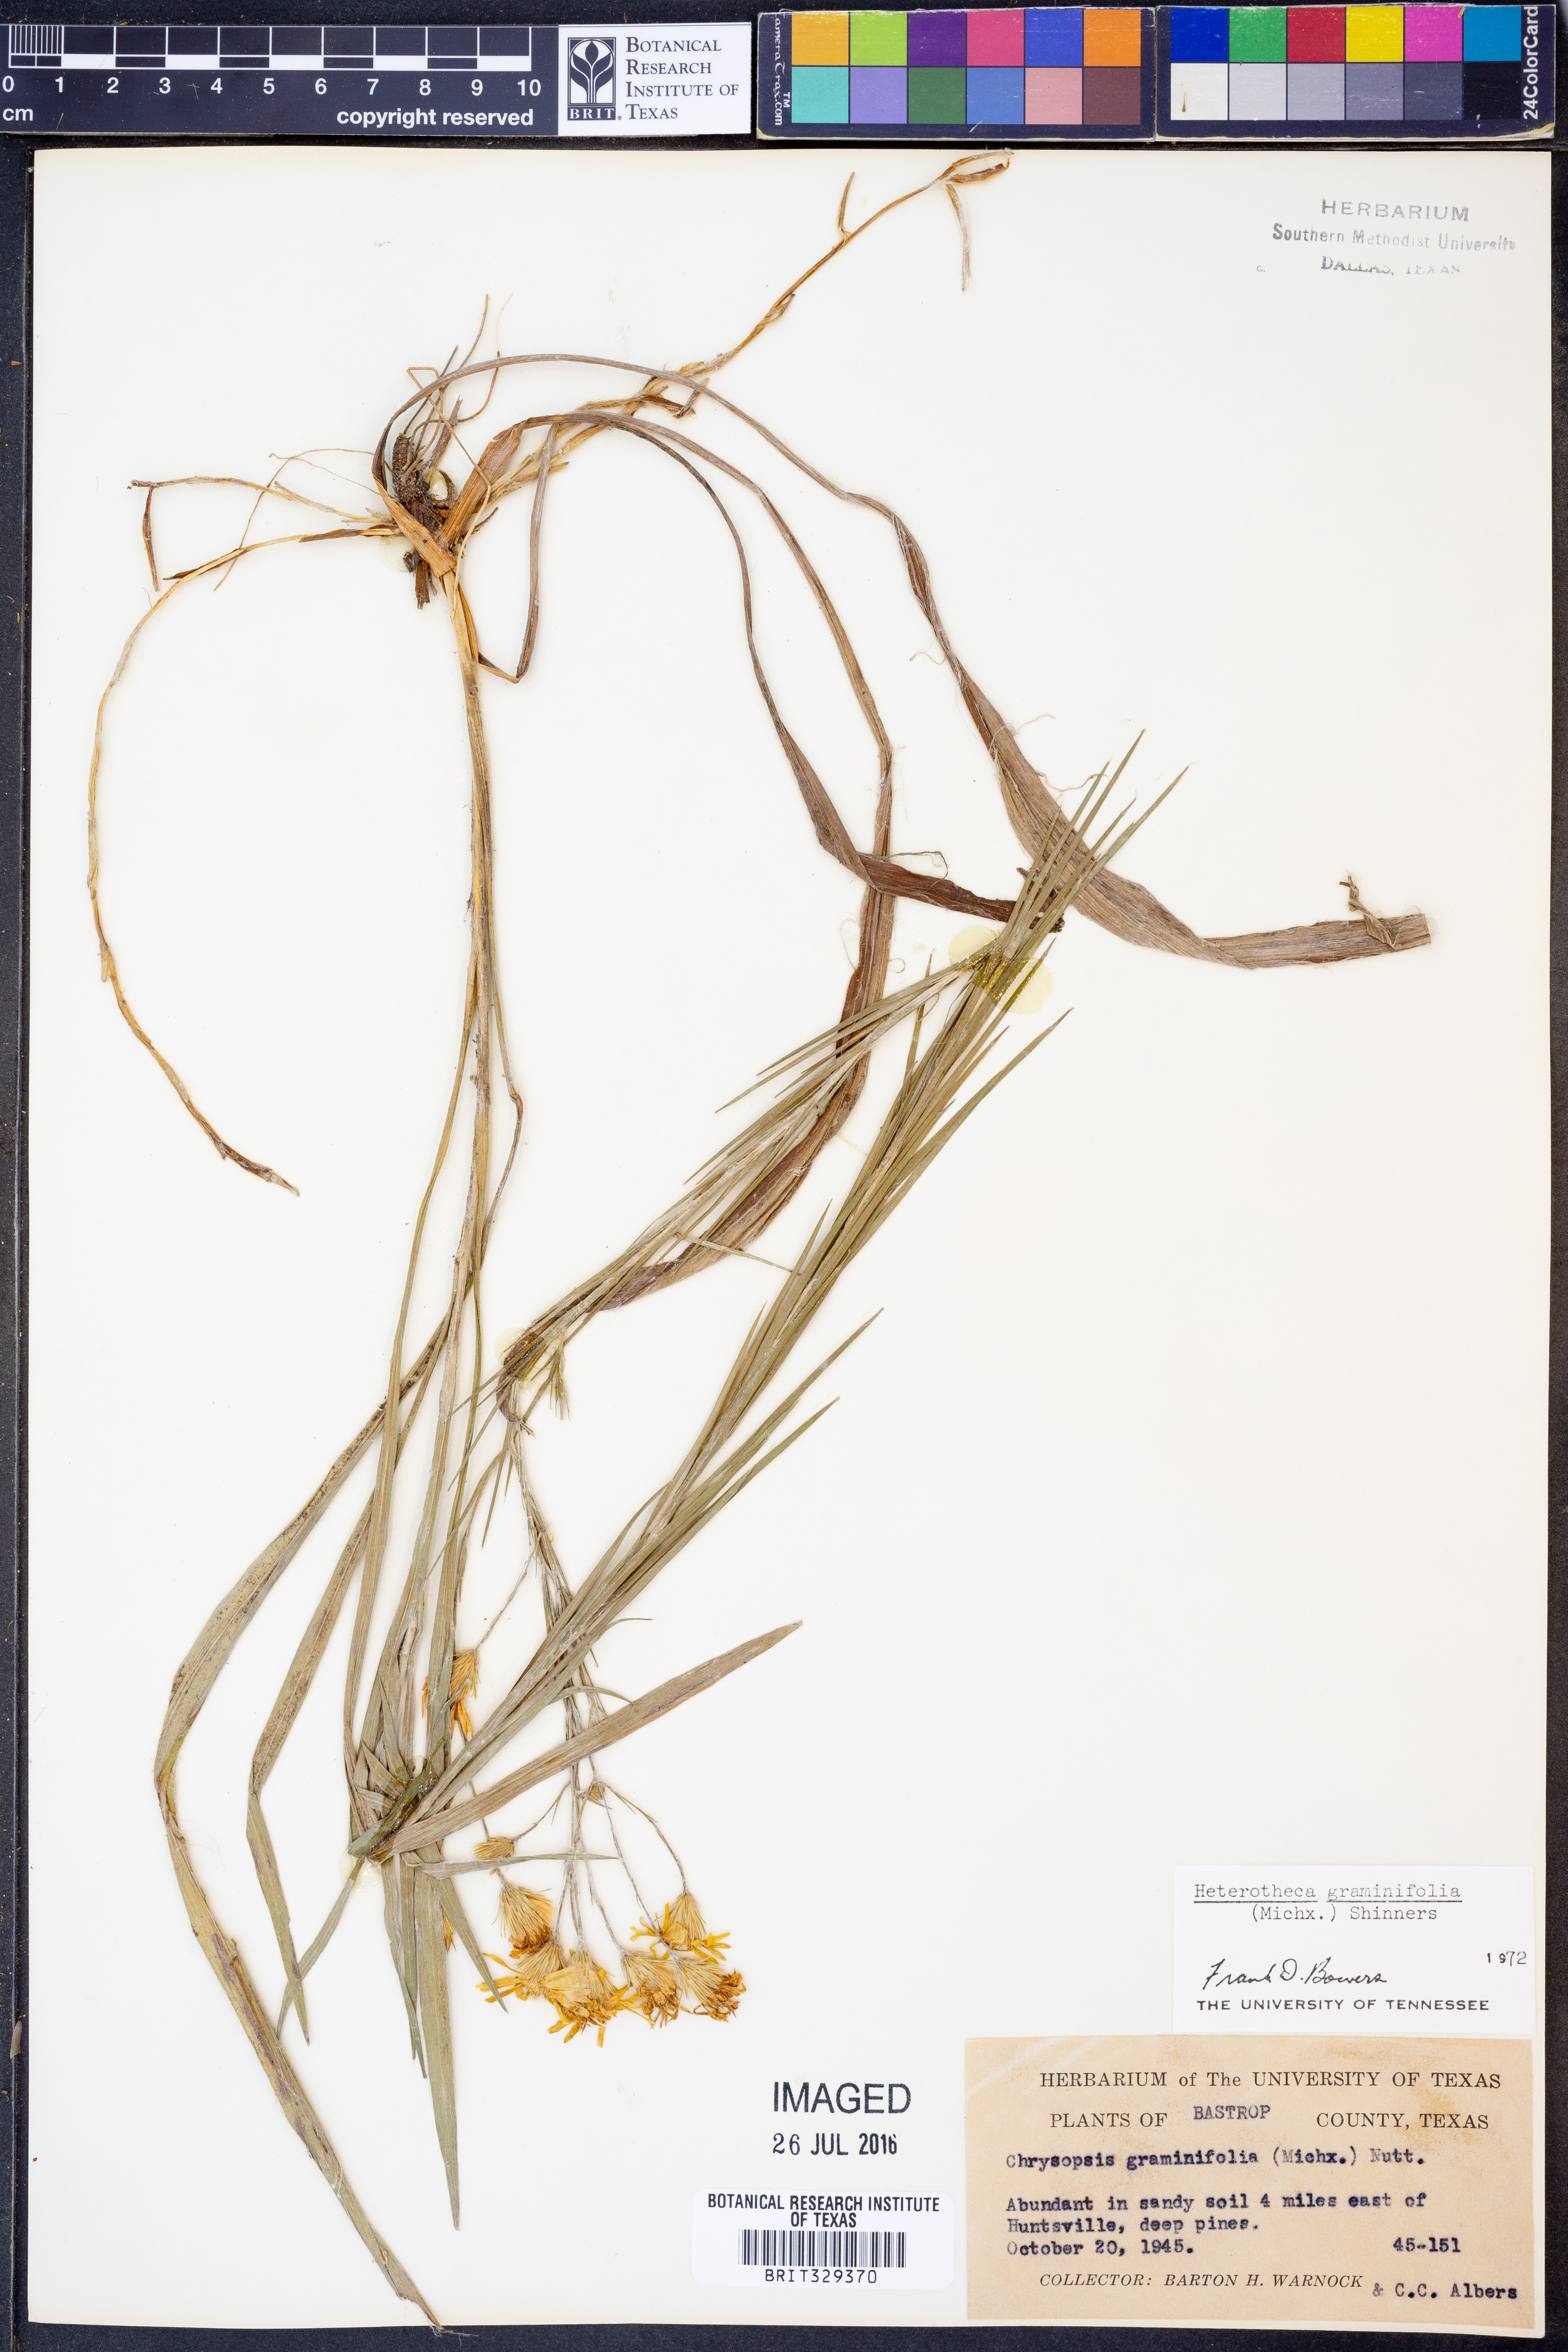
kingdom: Plantae
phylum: Tracheophyta
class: Magnoliopsida
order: Asterales
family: Asteraceae
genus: Pityopsis
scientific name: Pityopsis graminifolia
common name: Grass-leaf golden-aster
